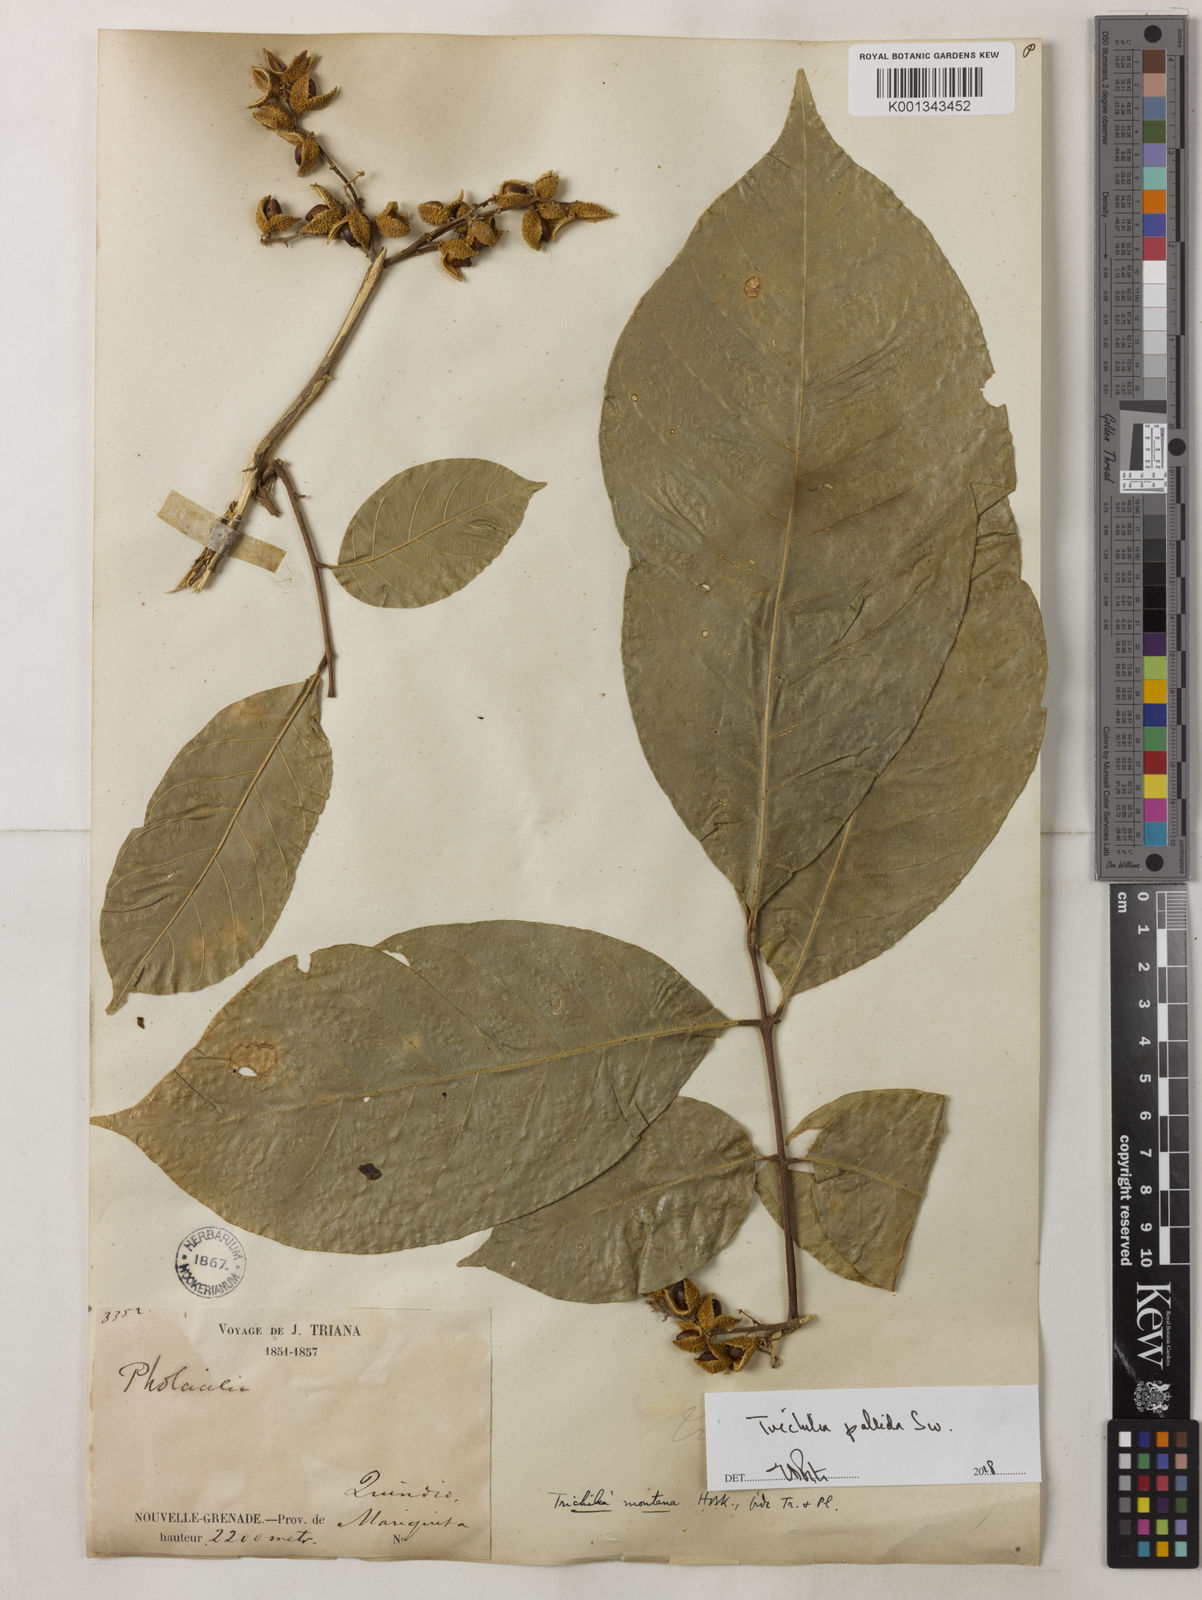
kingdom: Plantae
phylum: Tracheophyta
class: Magnoliopsida
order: Sapindales
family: Meliaceae
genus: Trichilia
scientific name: Trichilia pallida
